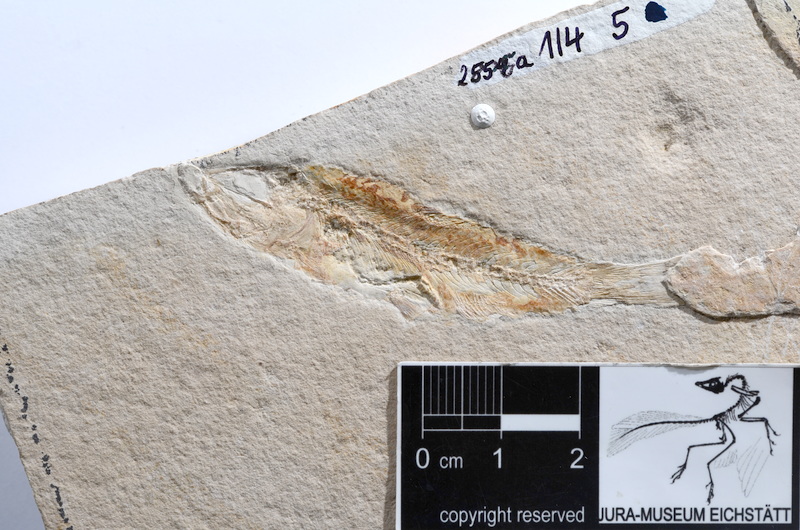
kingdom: Animalia
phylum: Chordata
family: Ascalaboidae
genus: Ascalabos
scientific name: Ascalabos voithii
